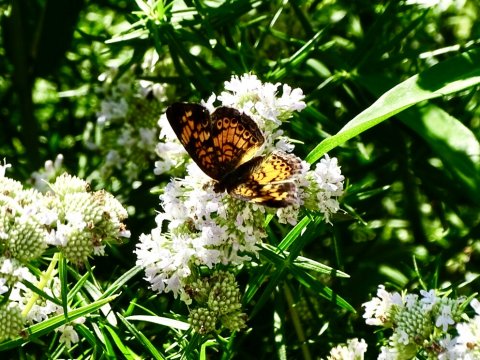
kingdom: Animalia
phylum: Arthropoda
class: Insecta
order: Lepidoptera
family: Nymphalidae
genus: Phyciodes
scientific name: Phyciodes tharos
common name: Pearl Crescent
